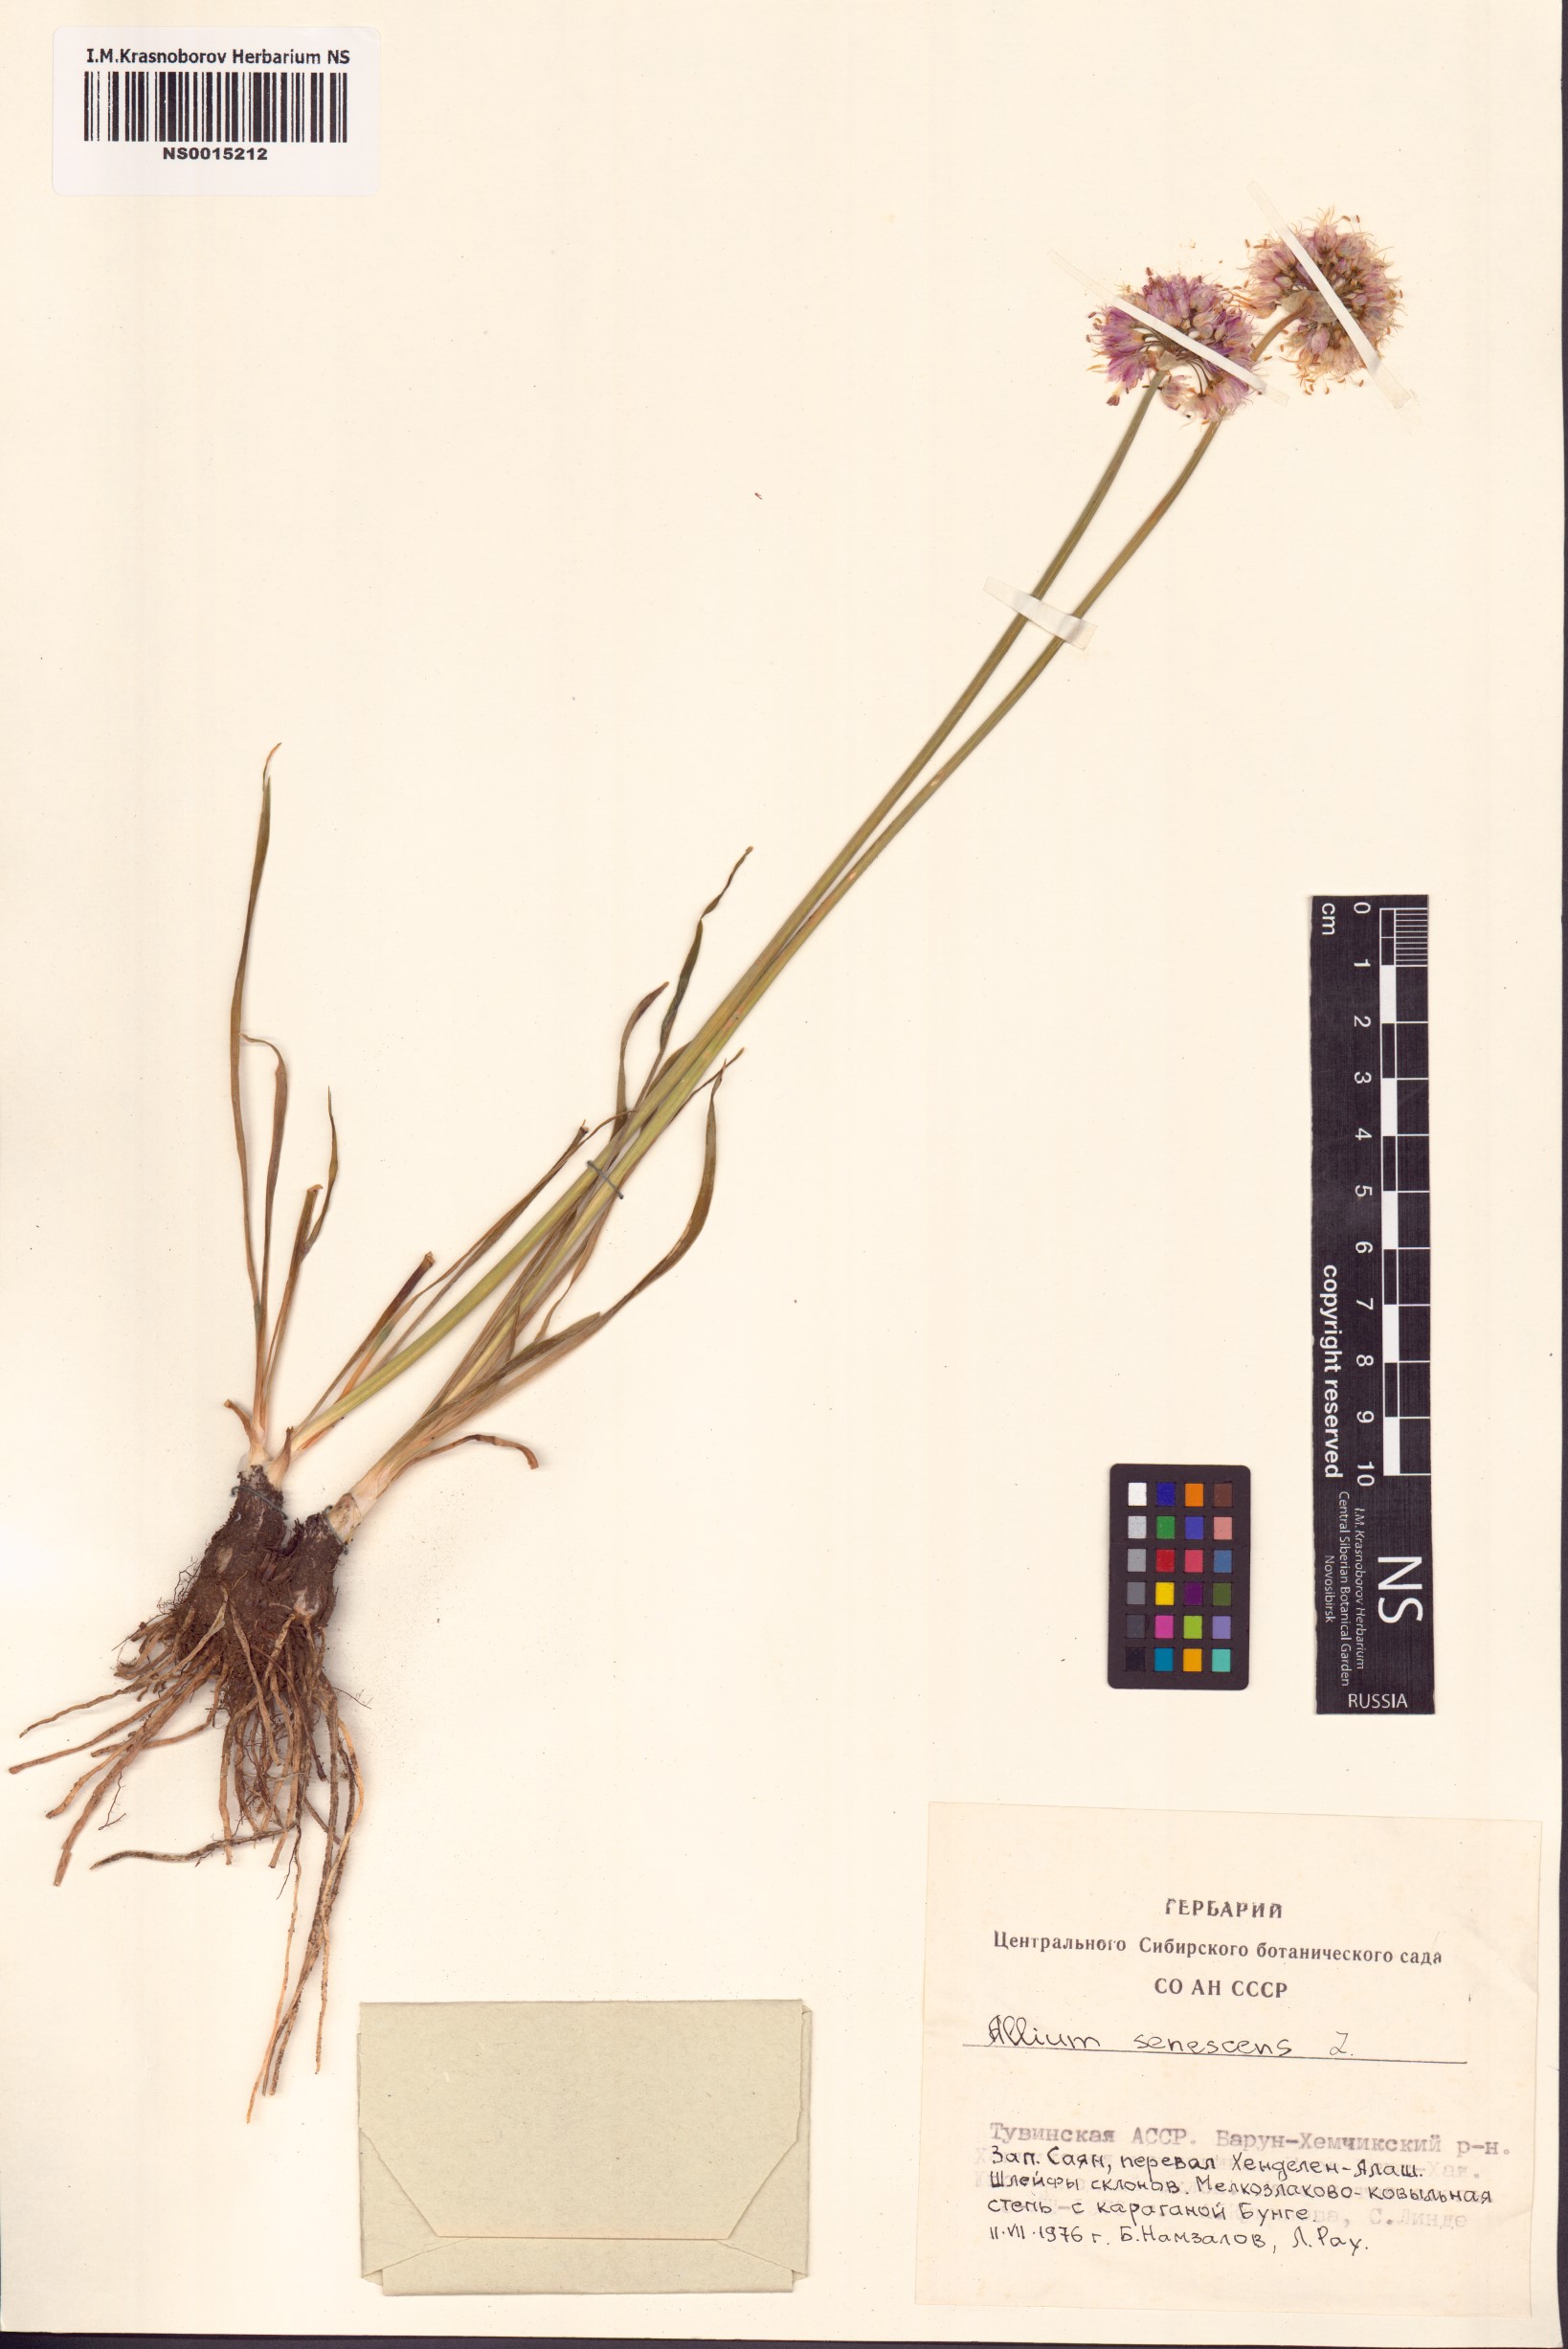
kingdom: Plantae
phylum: Tracheophyta
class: Liliopsida
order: Asparagales
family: Amaryllidaceae
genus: Allium
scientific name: Allium senescens
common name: German garlic
